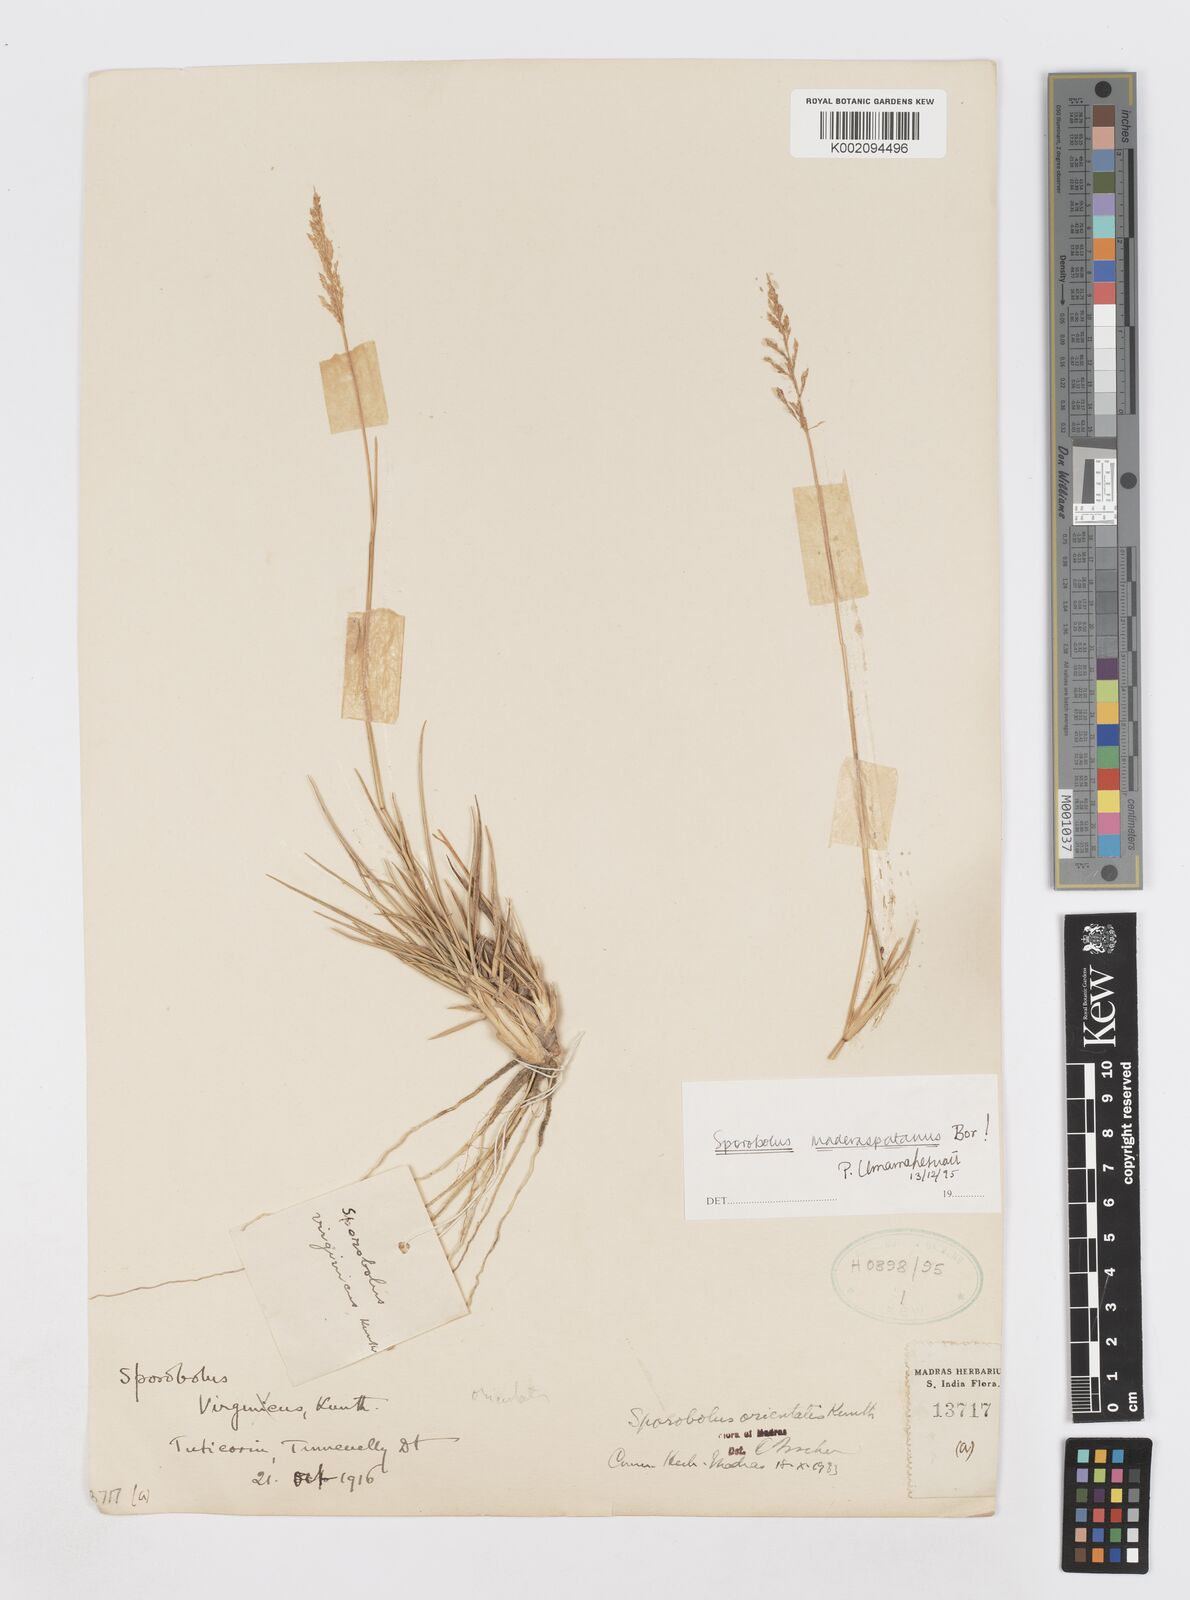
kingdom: Plantae
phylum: Tracheophyta
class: Liliopsida
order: Poales
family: Poaceae
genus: Sporobolus
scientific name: Sporobolus maderaspatanus
